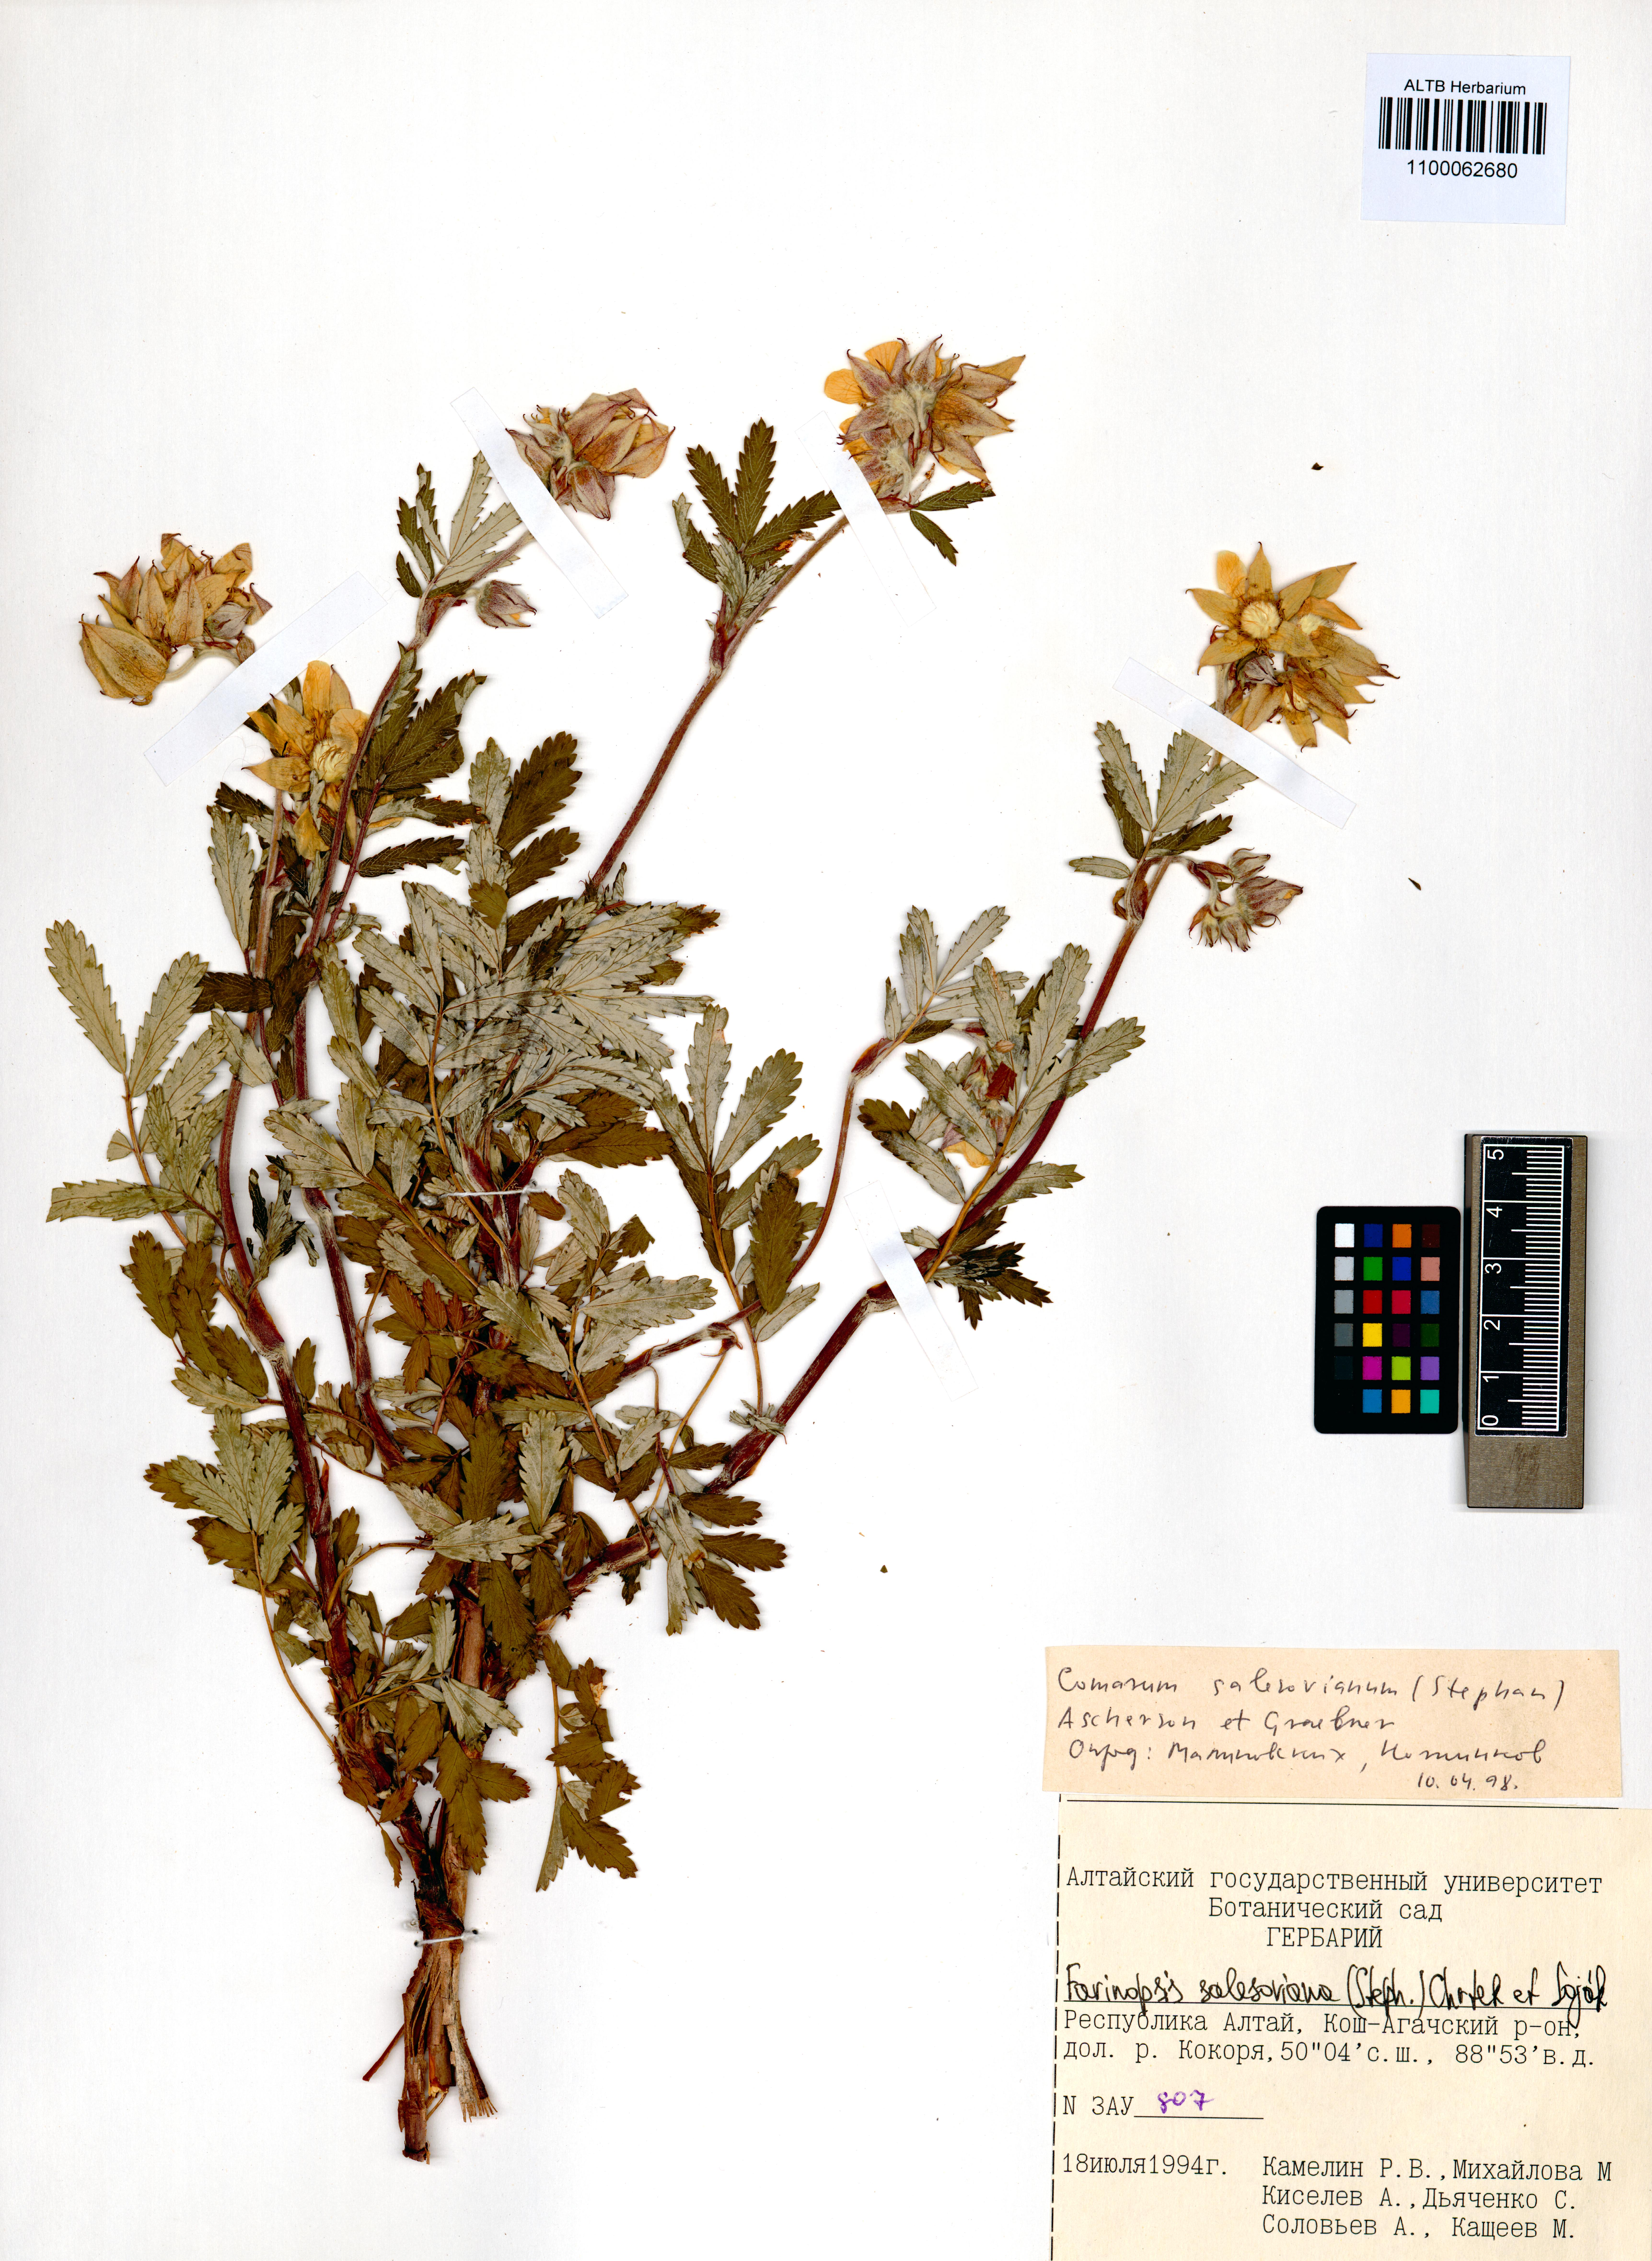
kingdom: Plantae
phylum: Tracheophyta
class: Magnoliopsida
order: Rosales
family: Rosaceae
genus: Farinopsis
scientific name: Farinopsis salesoviana
